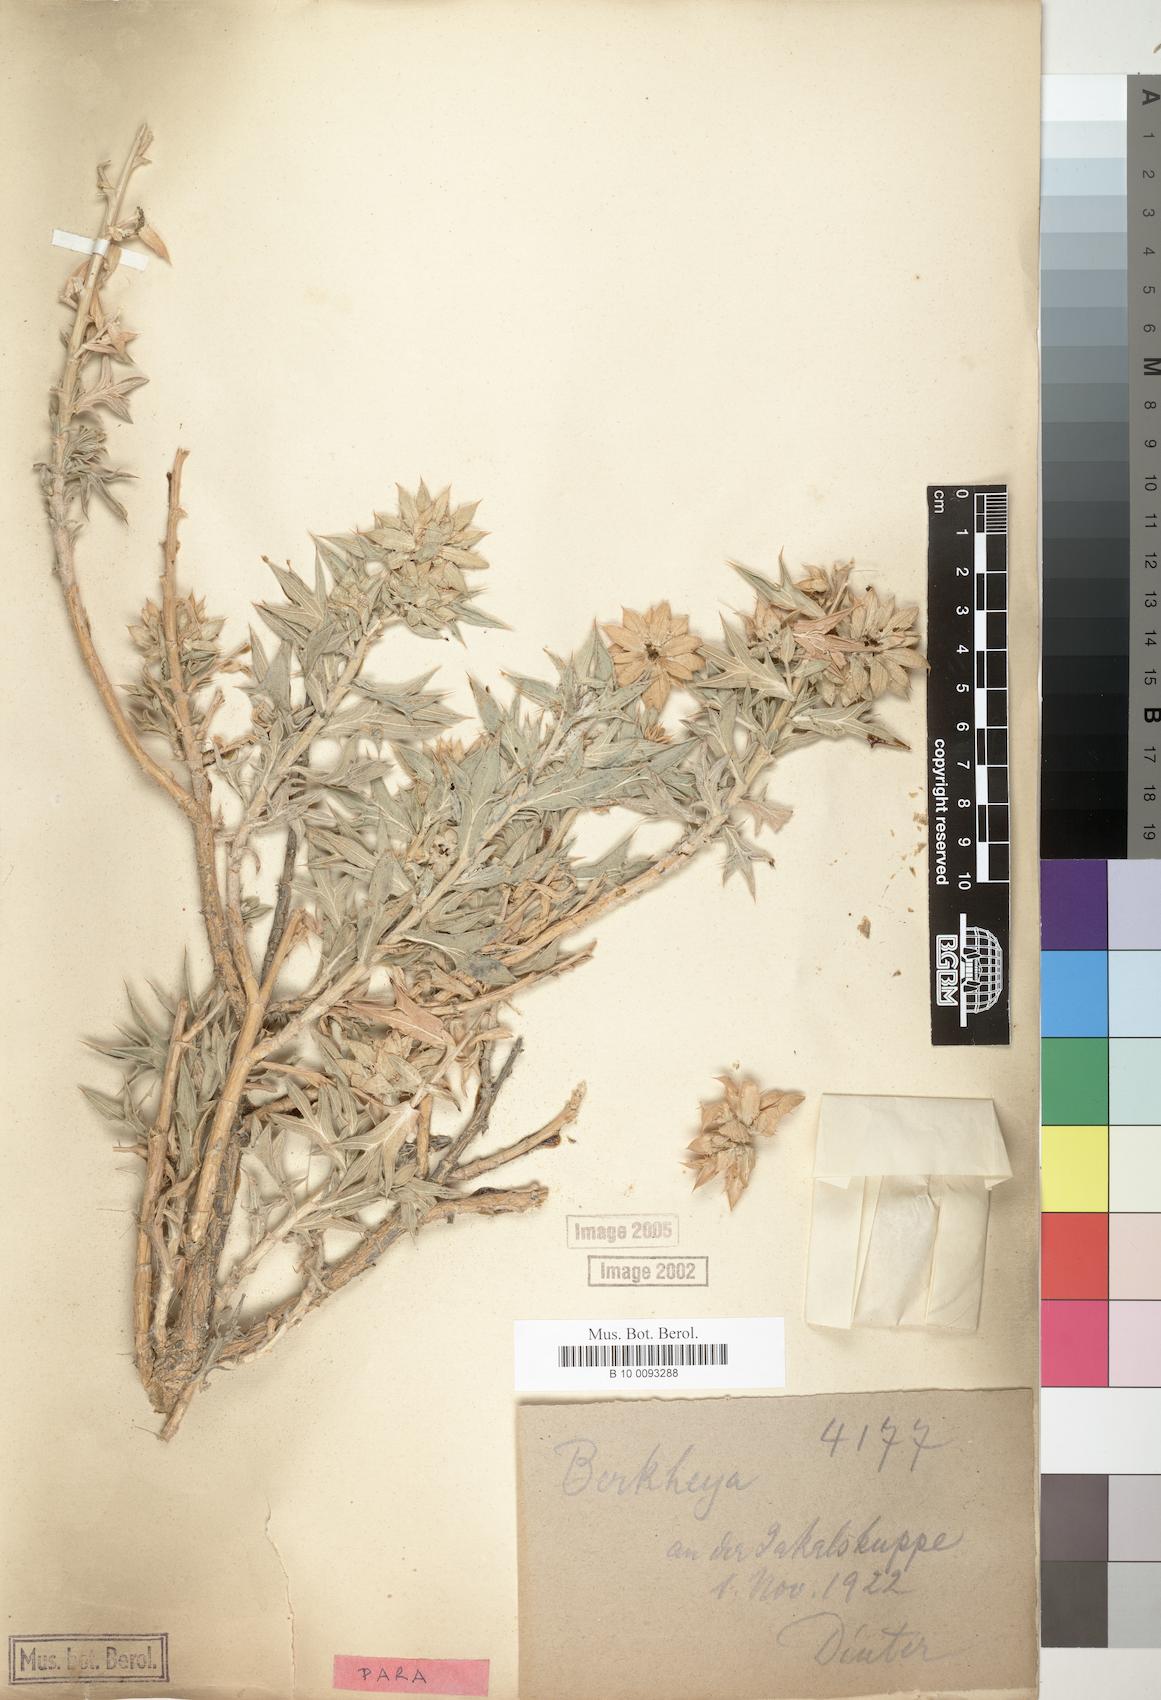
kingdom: Plantae
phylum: Tracheophyta
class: Magnoliopsida
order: Asterales
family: Asteraceae
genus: Berkheya
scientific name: Berkheya ferox
